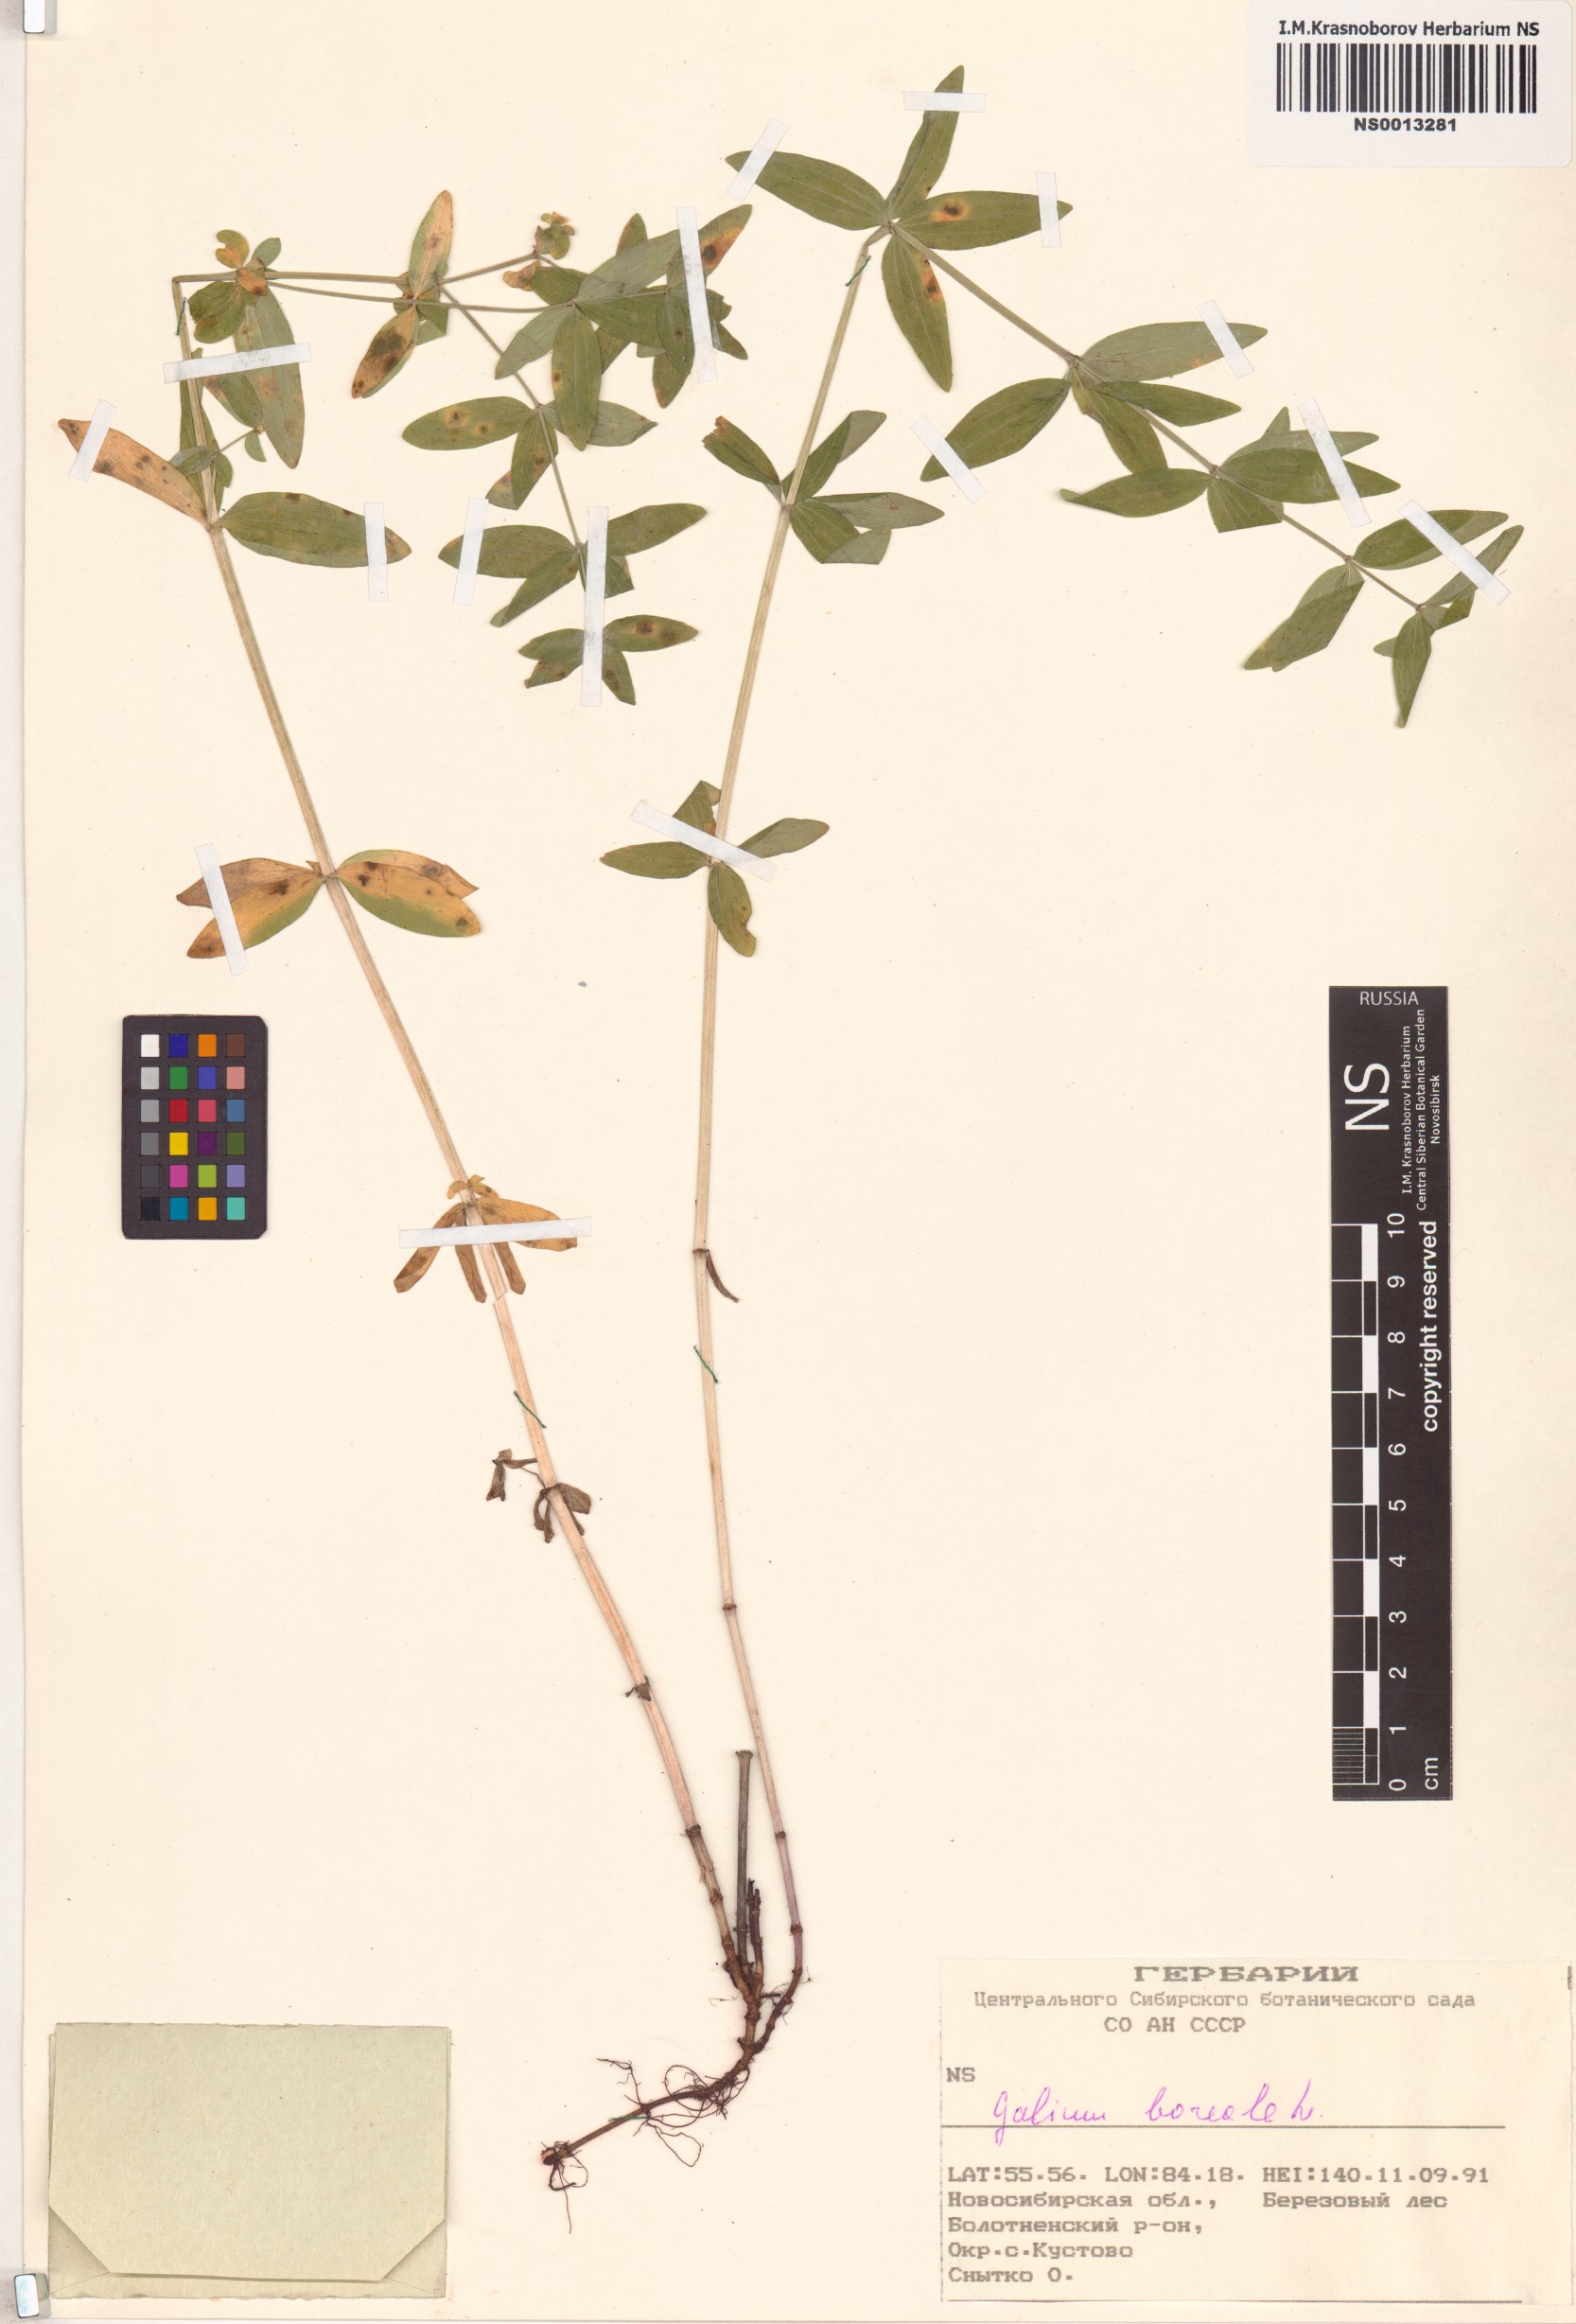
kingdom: Plantae
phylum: Tracheophyta
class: Magnoliopsida
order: Gentianales
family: Rubiaceae
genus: Galium
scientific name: Galium boreale
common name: Northern bedstraw
